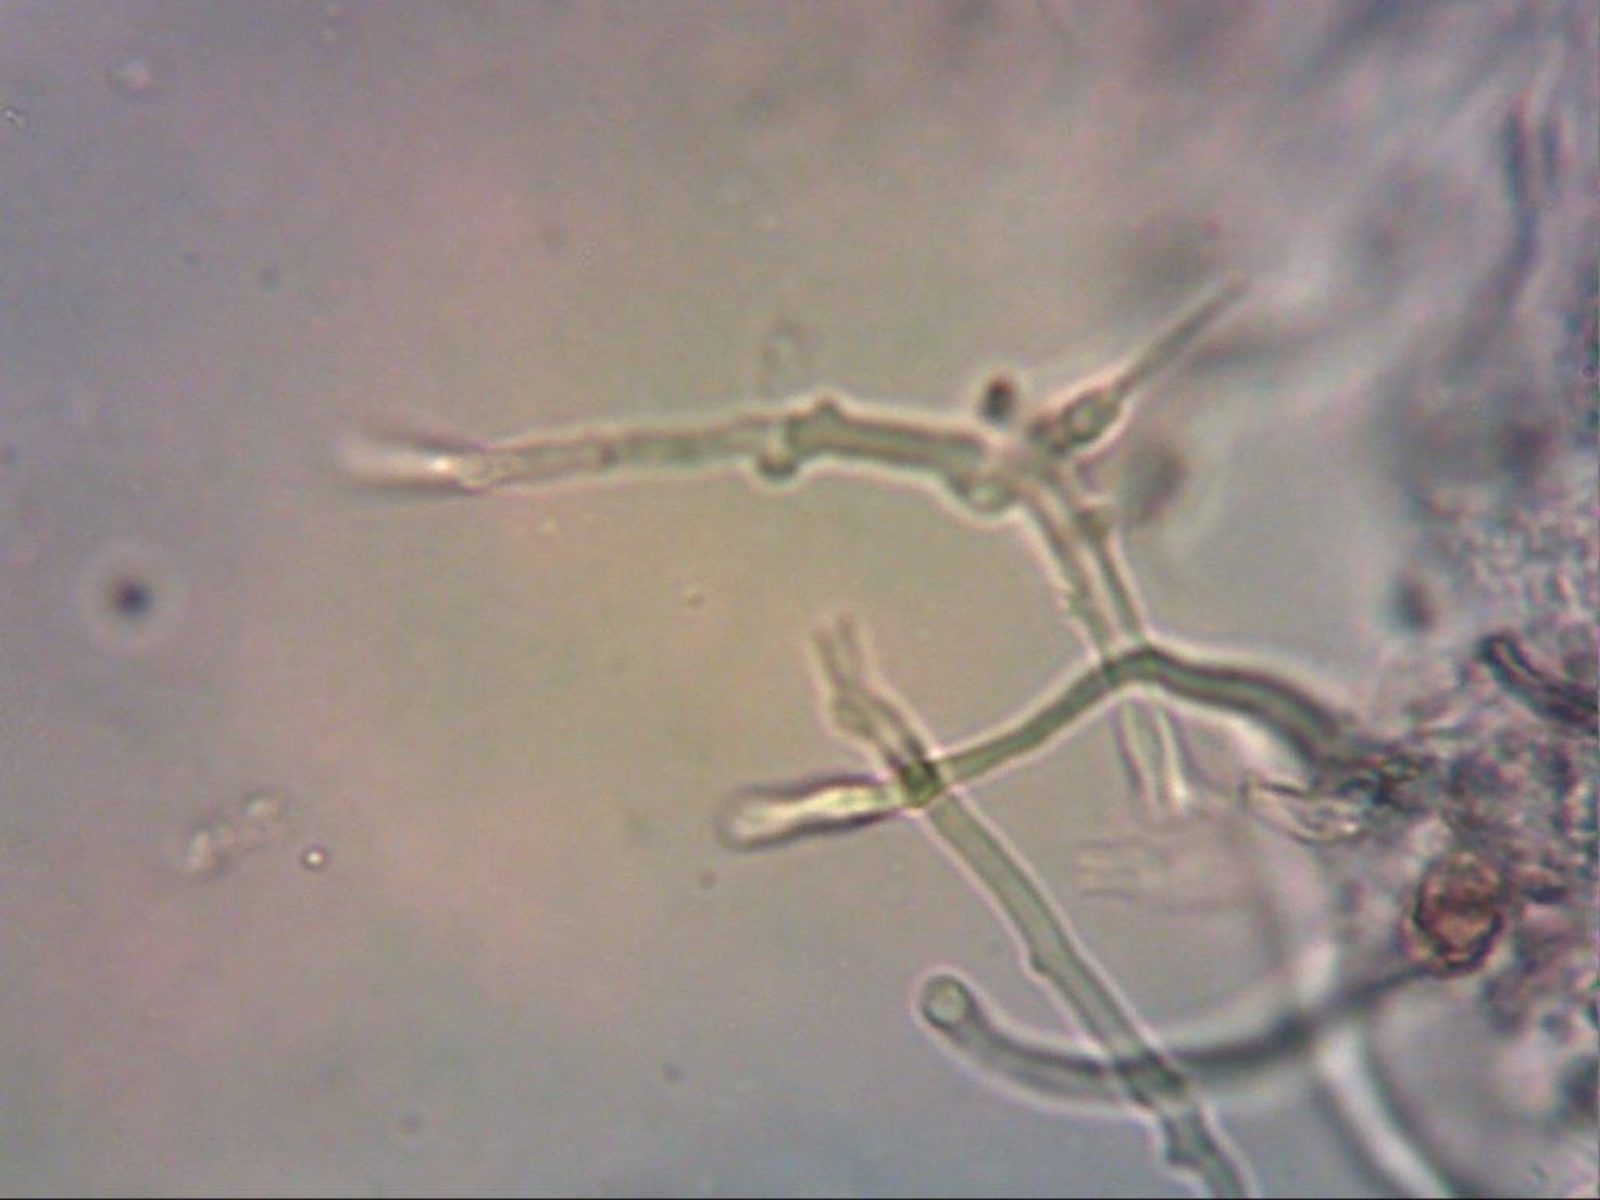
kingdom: Fungi
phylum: Basidiomycota
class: Agaricomycetes
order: Polyporales
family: Incrustoporiaceae
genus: Skeletocutis
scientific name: Skeletocutis
